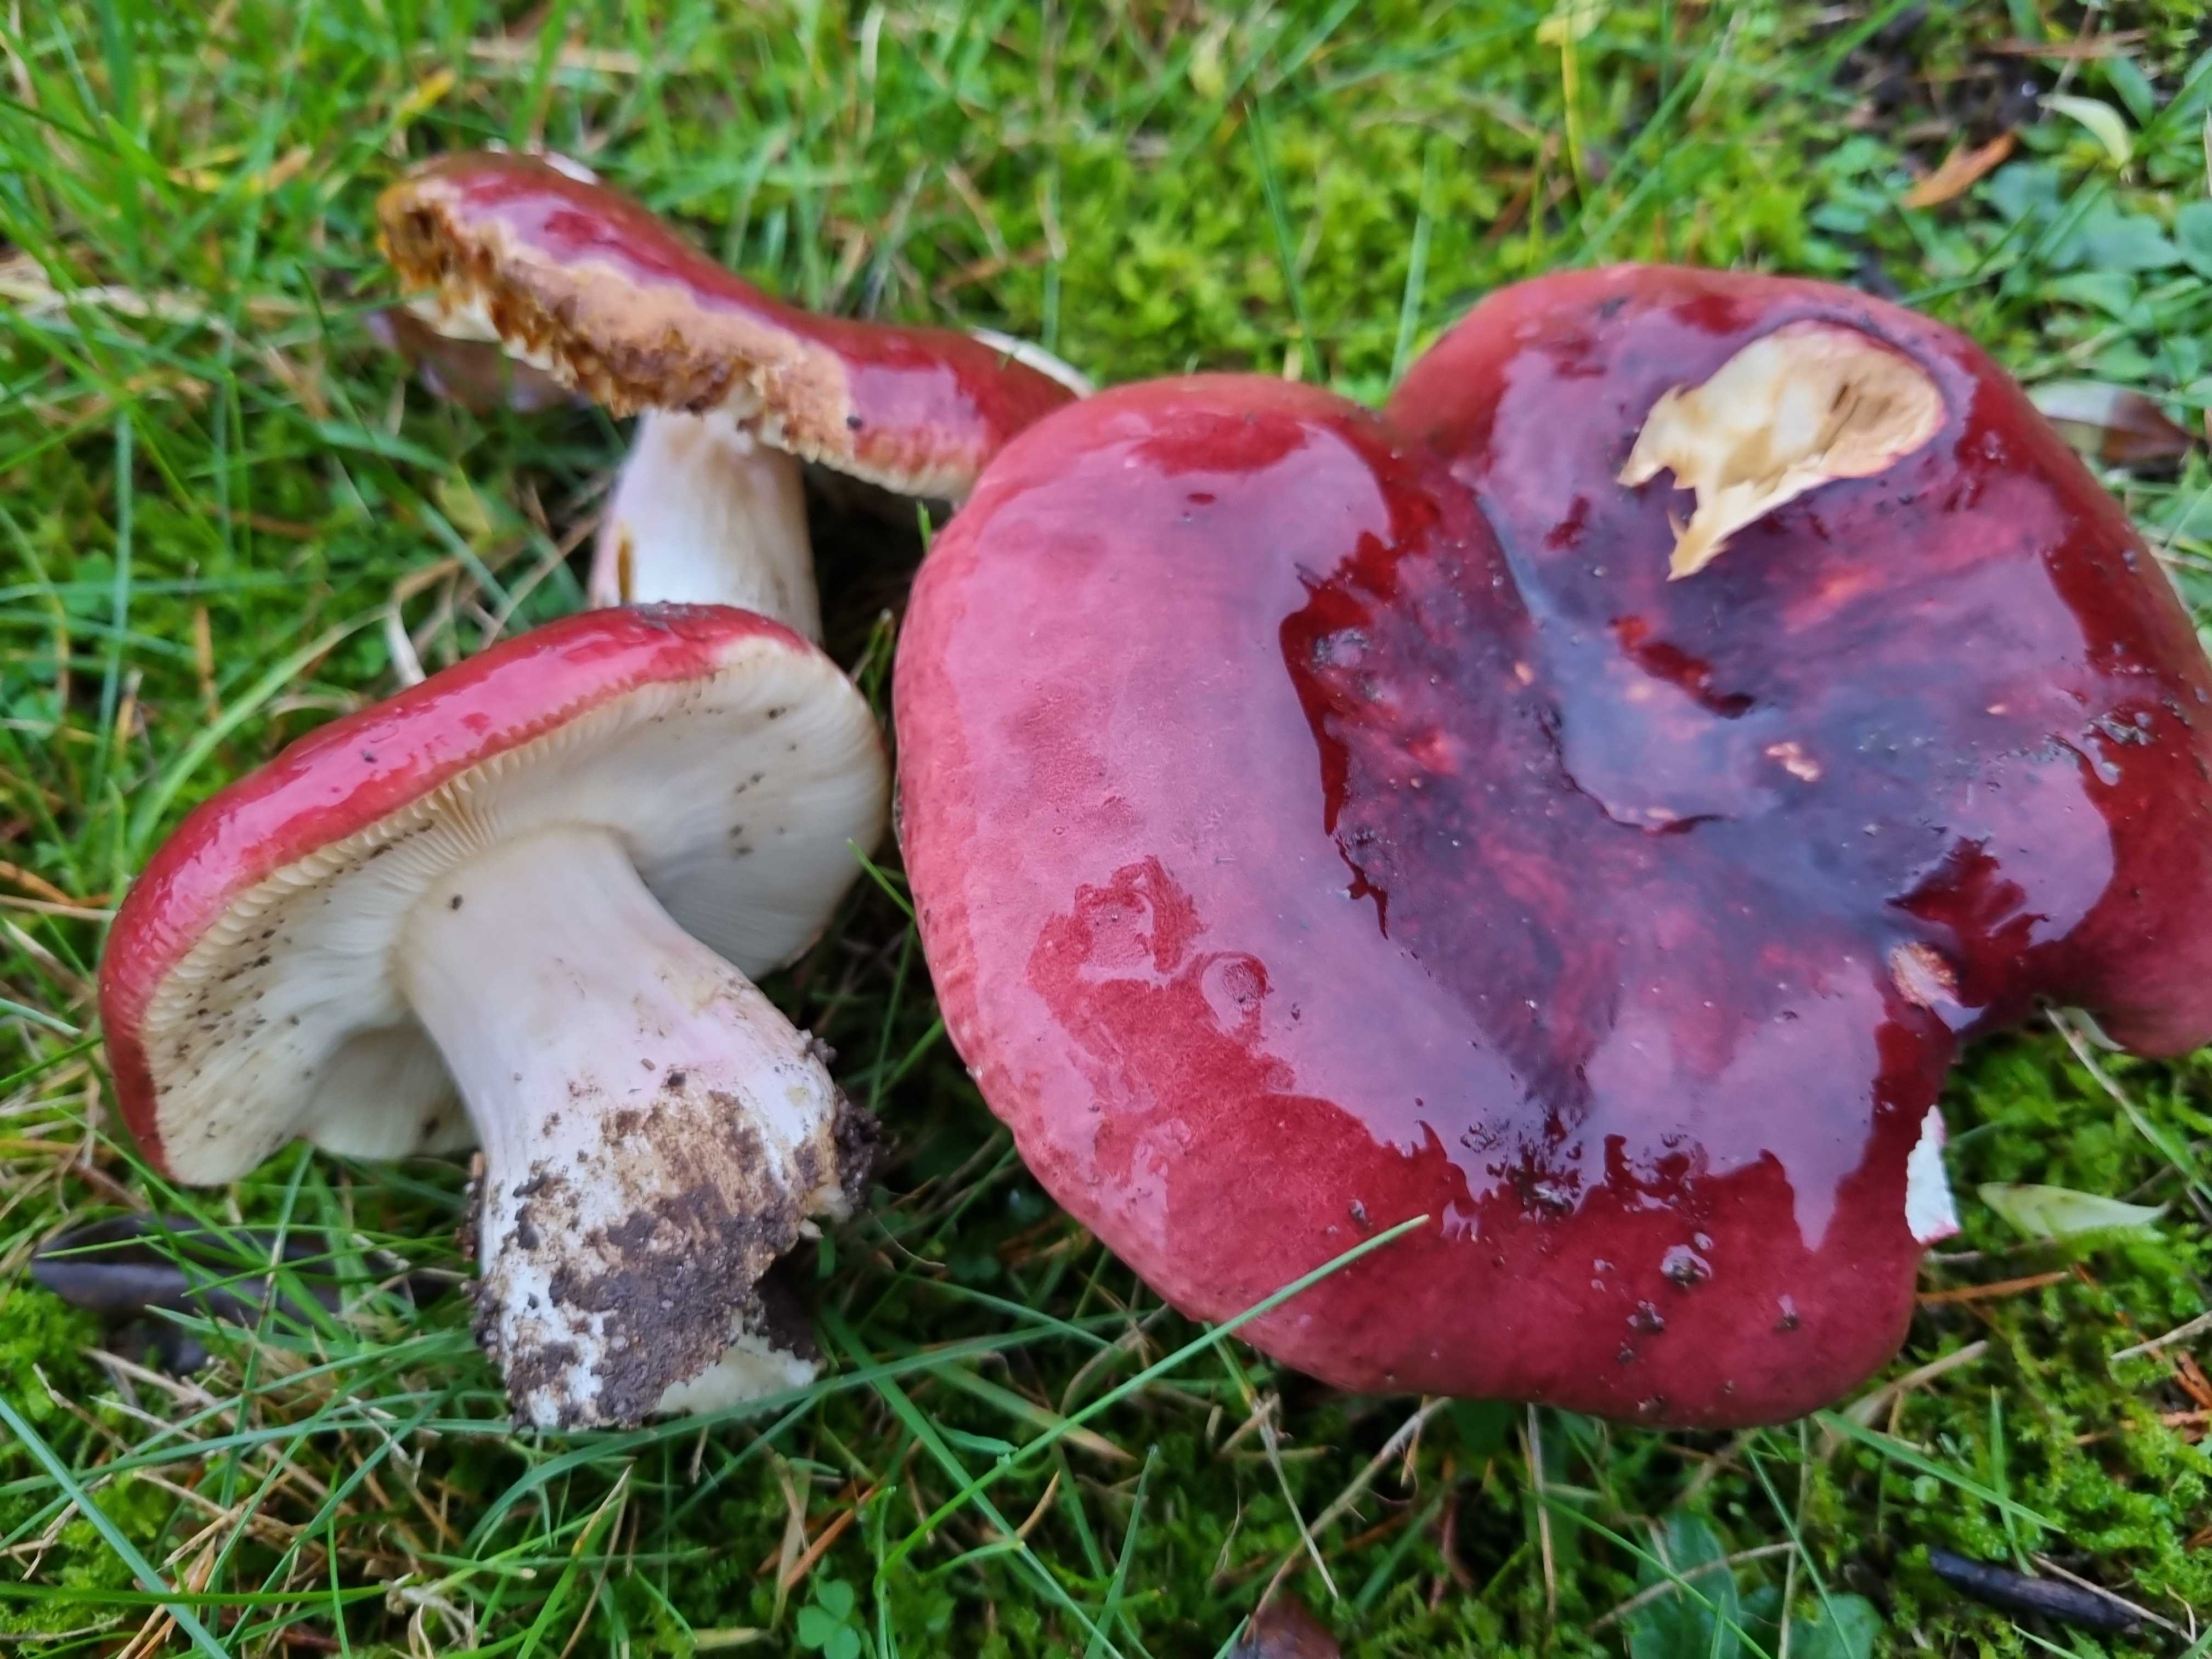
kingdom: Fungi
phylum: Basidiomycota
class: Agaricomycetes
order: Russulales
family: Russulaceae
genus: Russula
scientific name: Russula xerampelina
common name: hummer-skørhat
